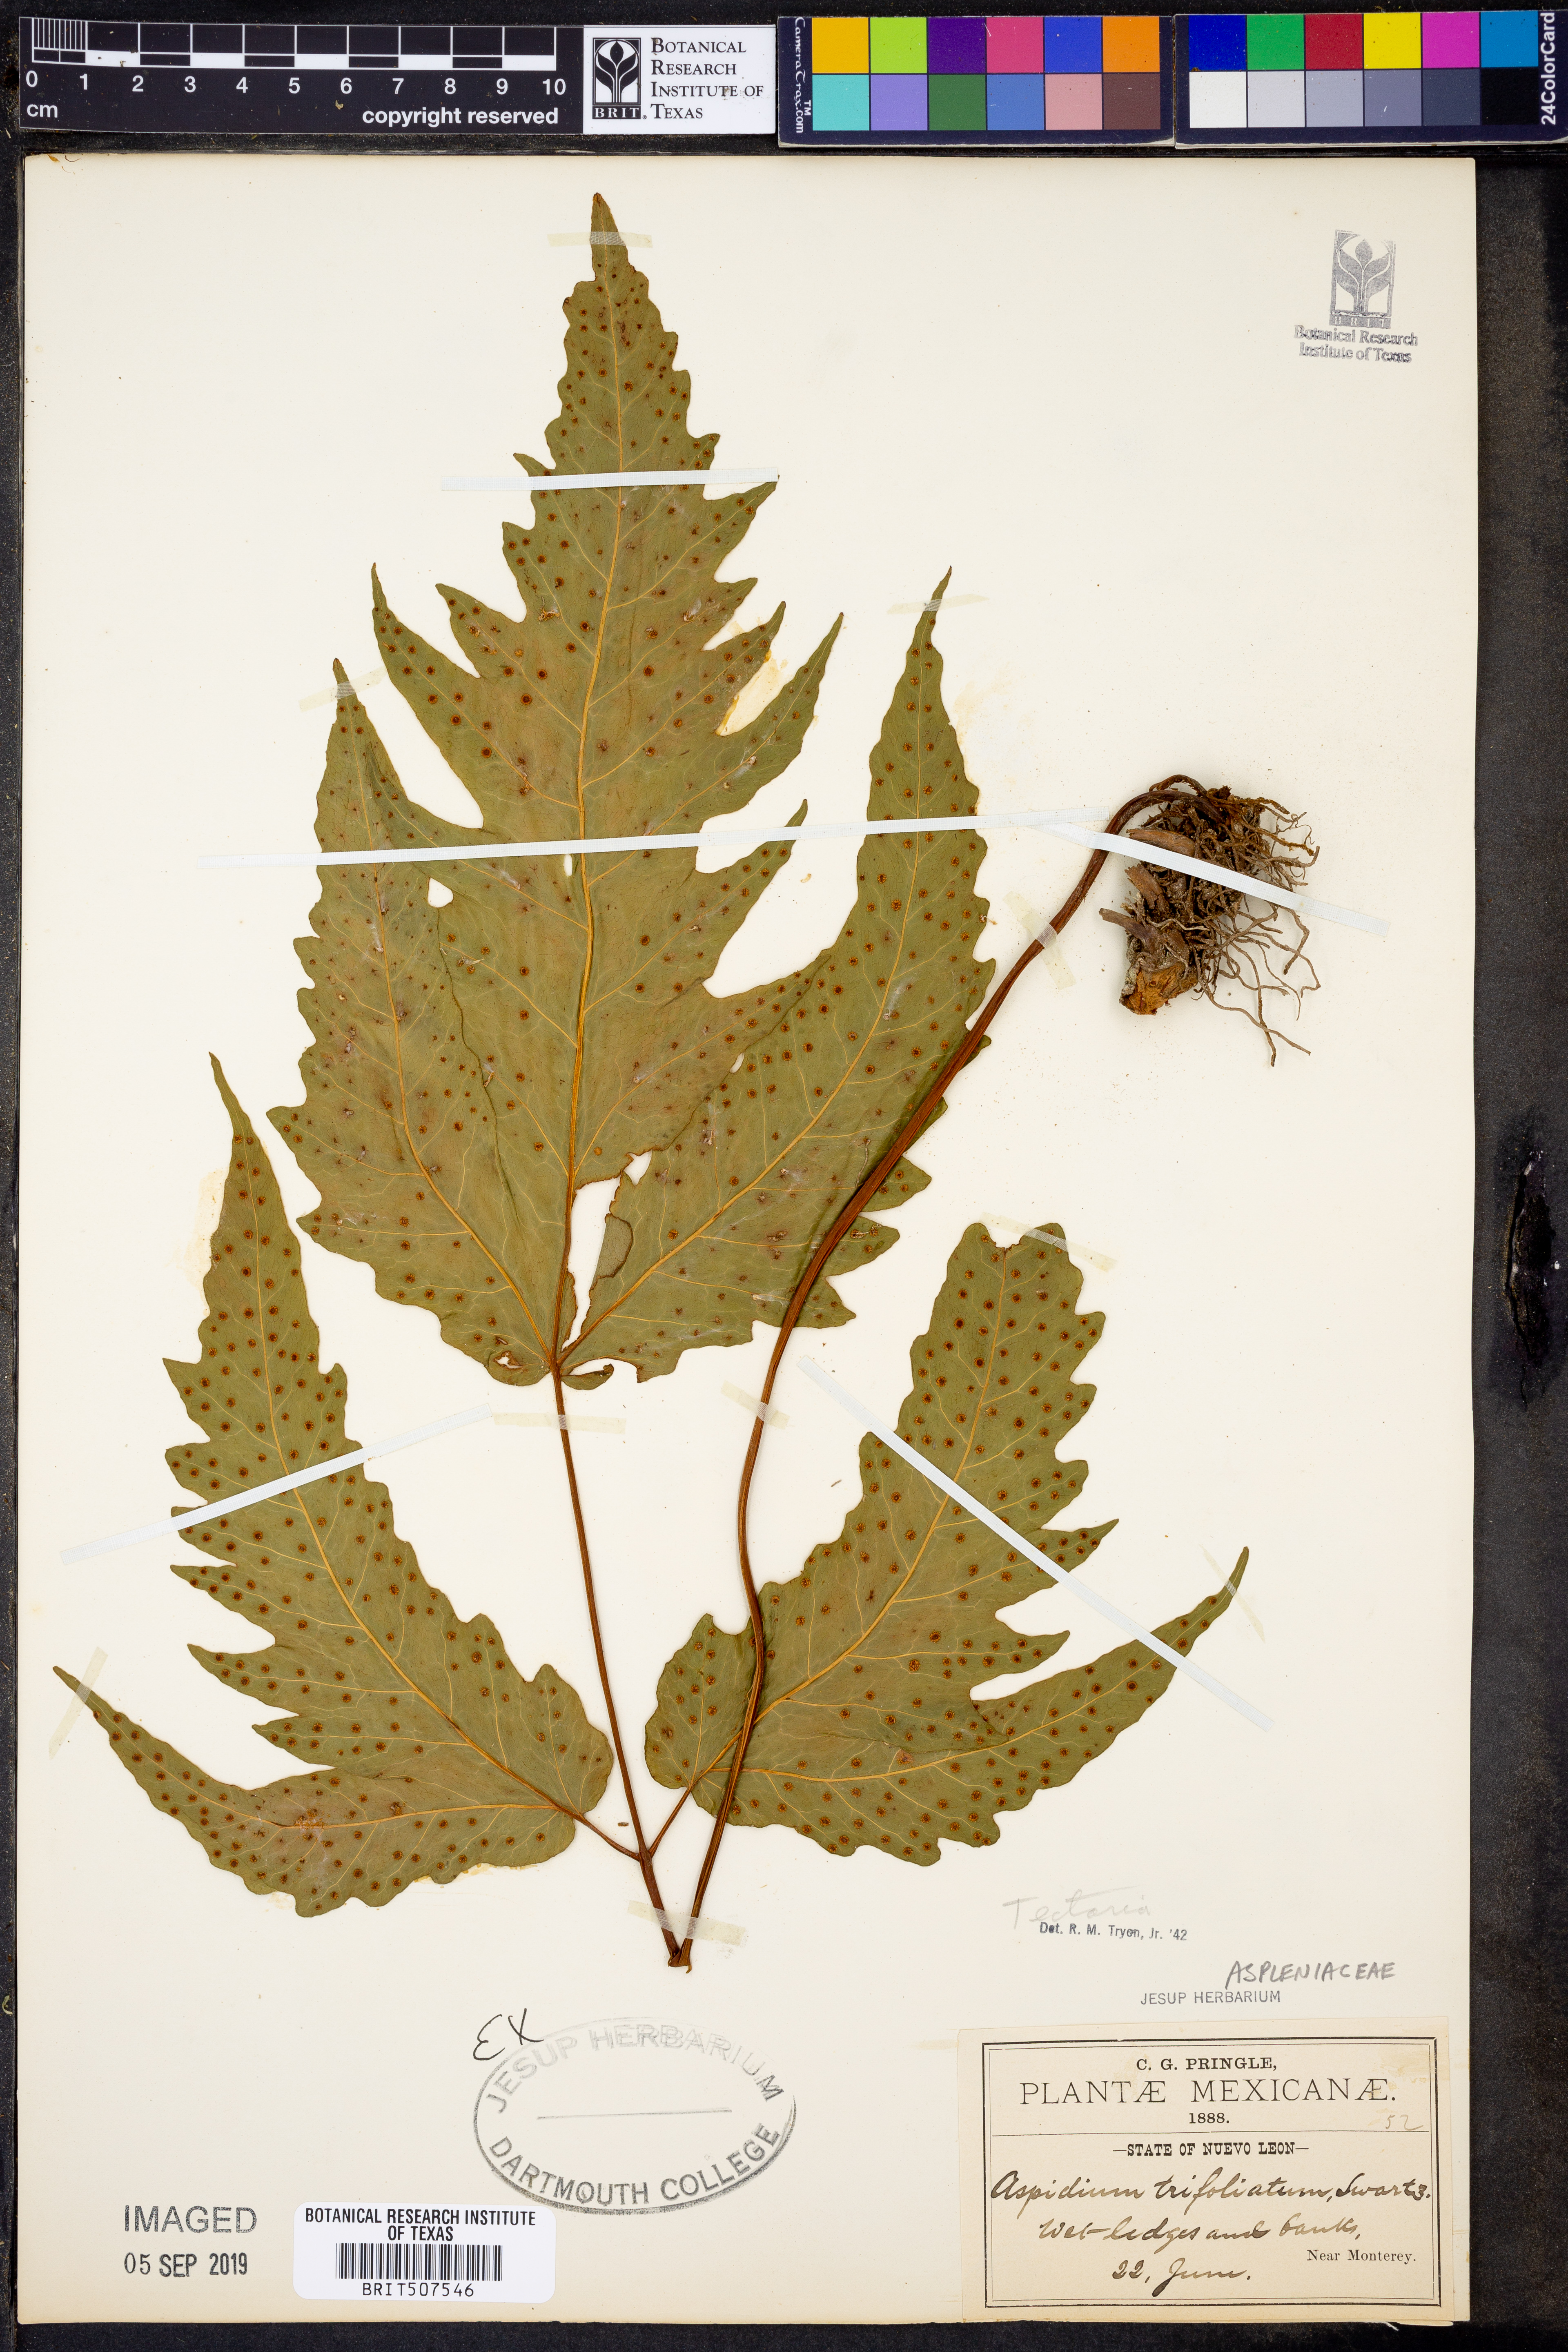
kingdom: Plantae
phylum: Tracheophyta
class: Polypodiopsida
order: Polypodiales
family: Tectariaceae
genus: Tectaria
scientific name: Tectaria
